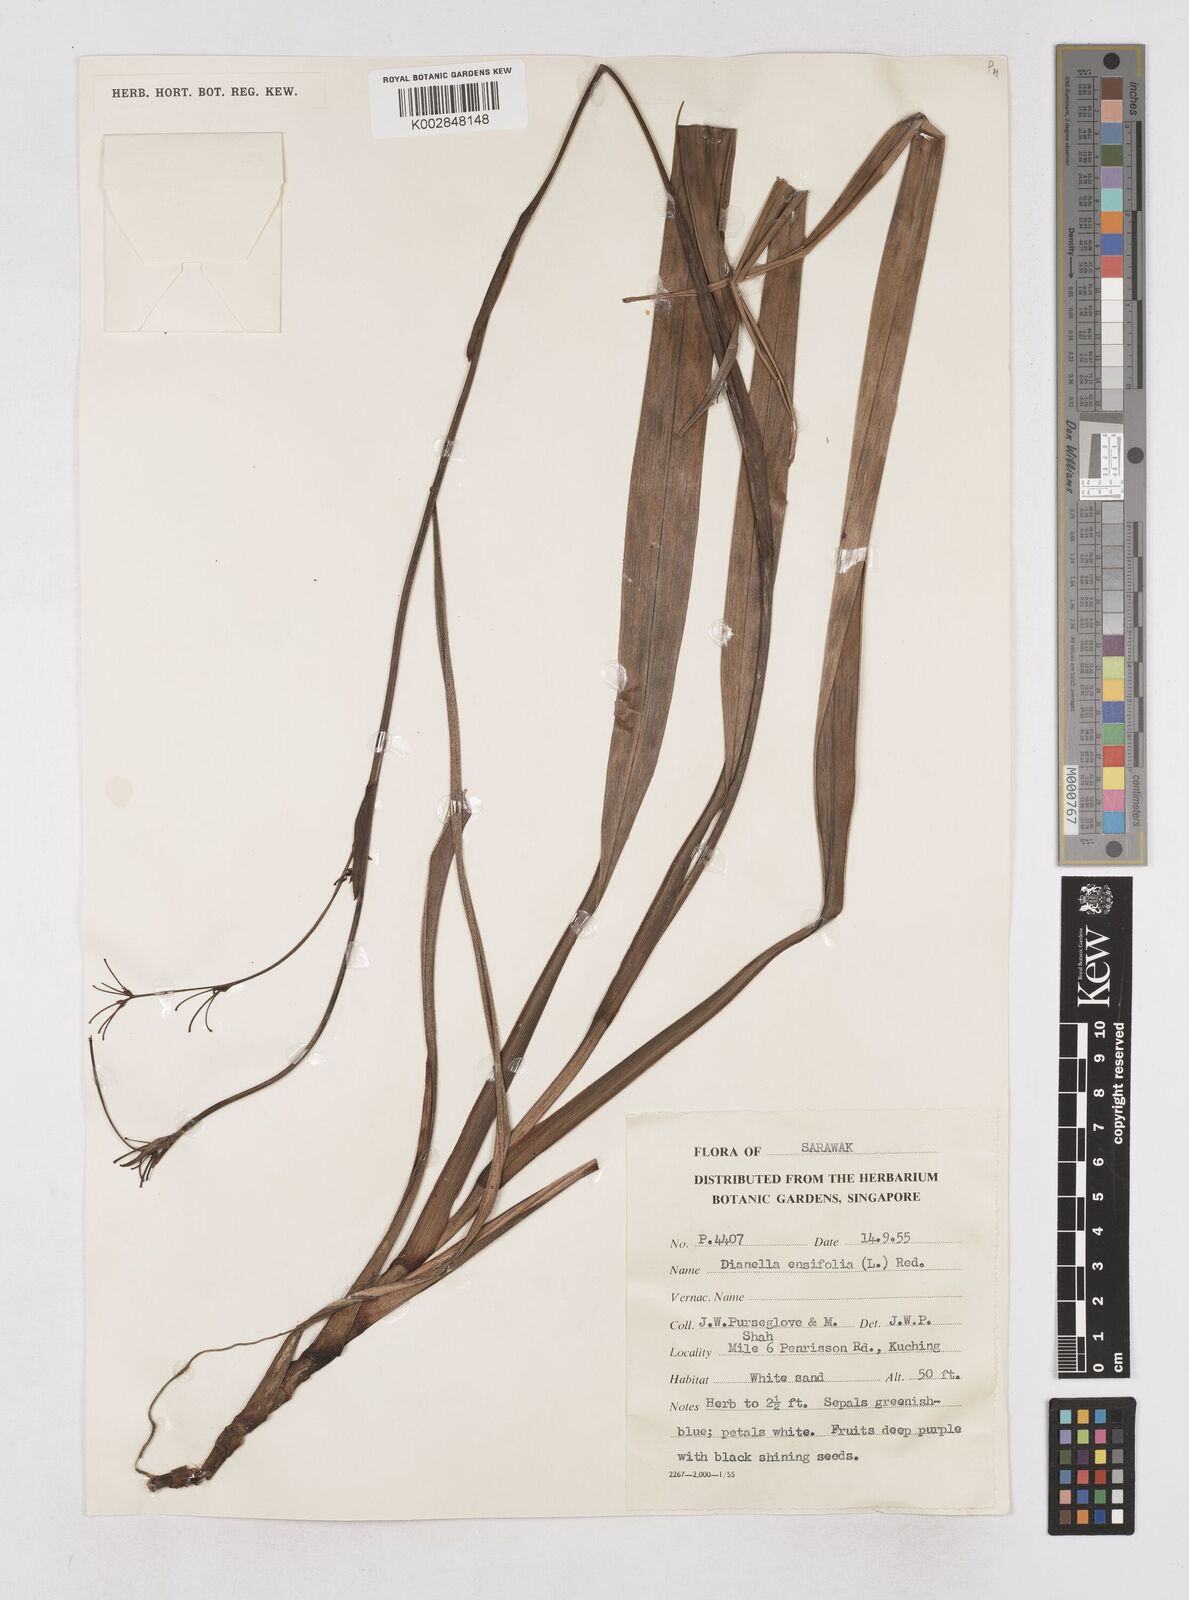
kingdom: Plantae
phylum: Tracheophyta
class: Liliopsida
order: Asparagales
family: Asphodelaceae
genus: Dianella
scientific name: Dianella ensifolia
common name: New zealand lilyplant
